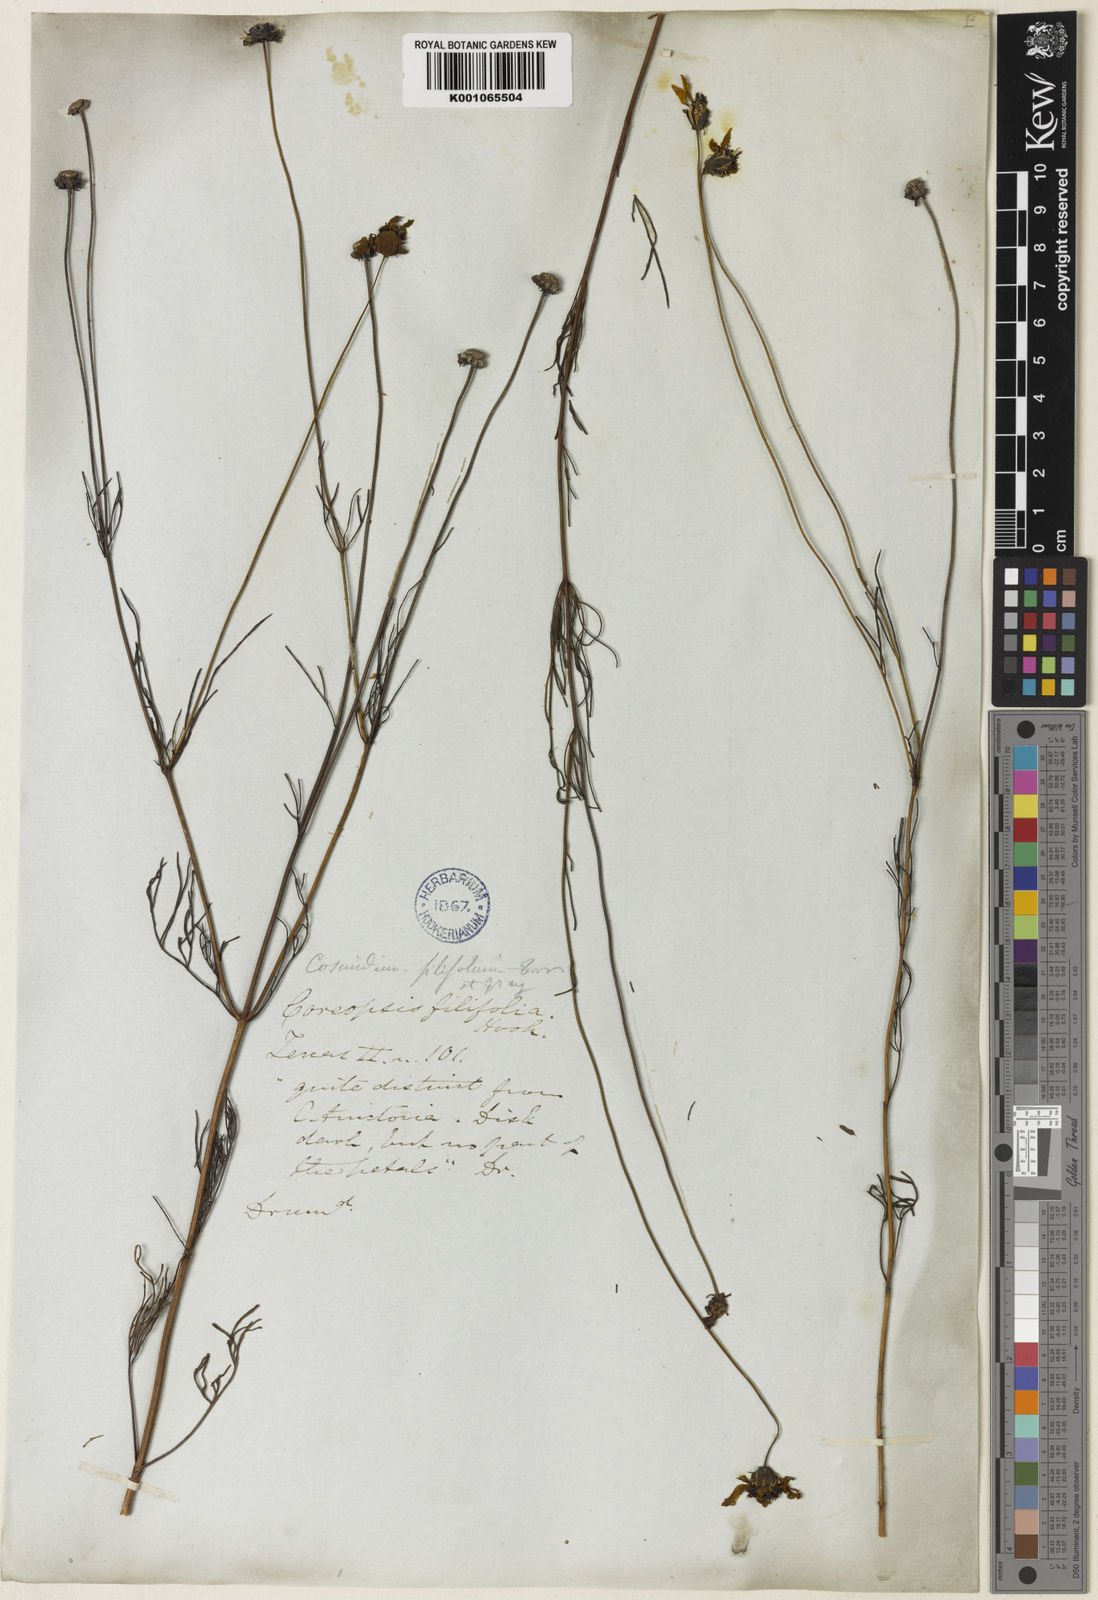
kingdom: Plantae
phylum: Tracheophyta
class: Magnoliopsida
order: Asterales
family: Asteraceae
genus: Thelesperma
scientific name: Thelesperma filifolium
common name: Stiff greenthread
